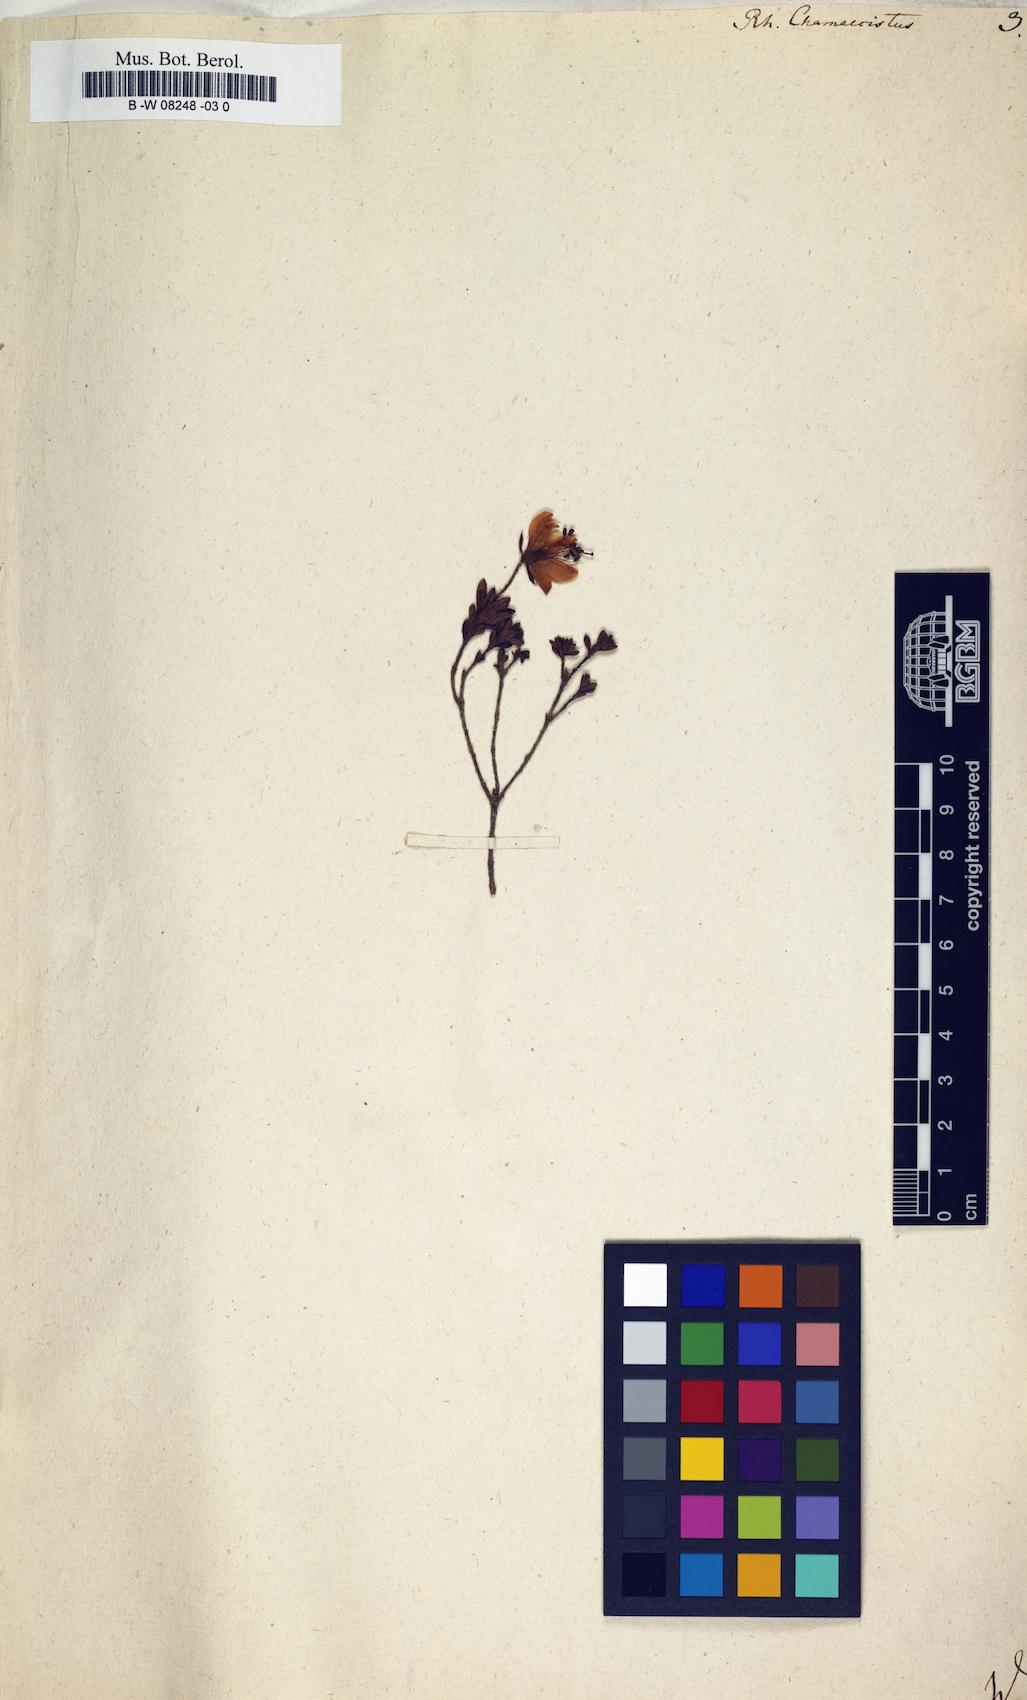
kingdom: Plantae
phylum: Tracheophyta
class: Magnoliopsida
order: Ericales
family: Ericaceae
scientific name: Ericaceae
